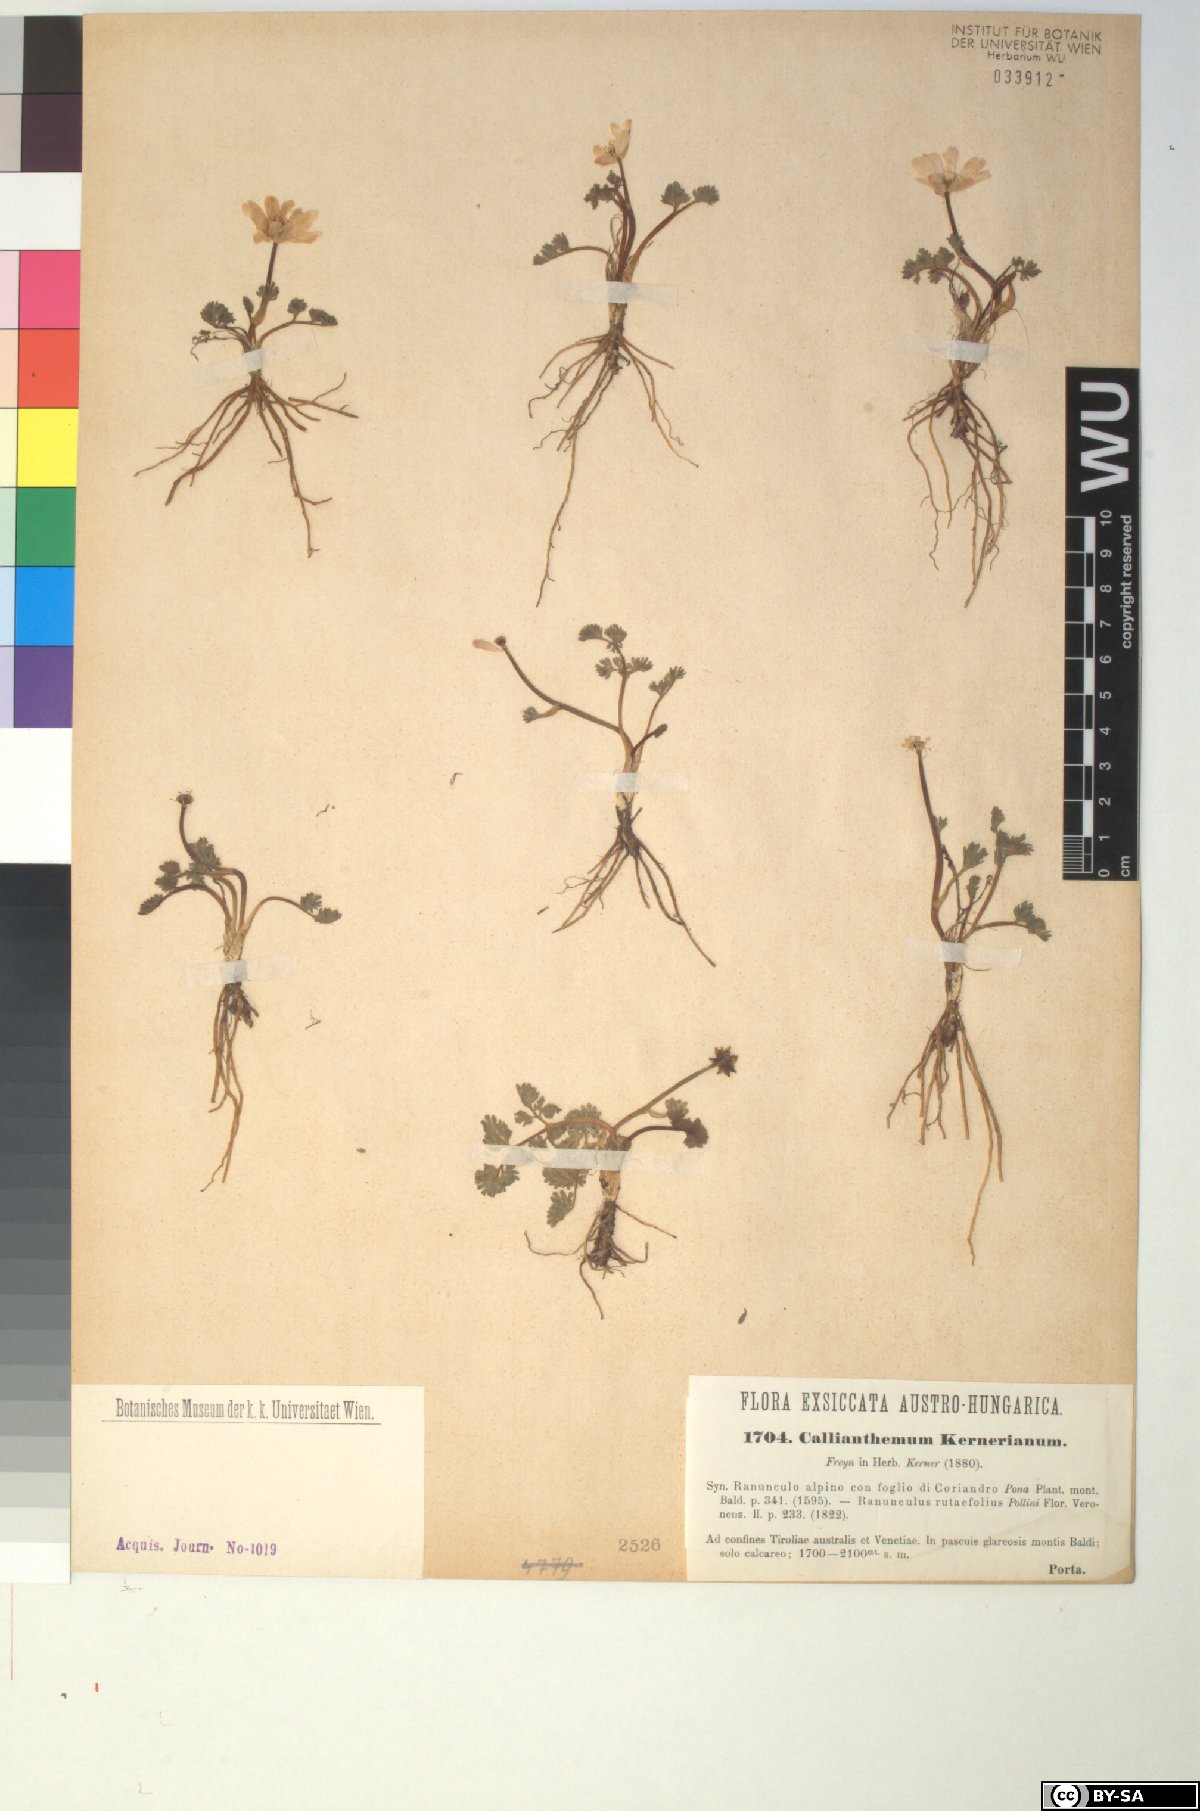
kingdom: Plantae
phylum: Tracheophyta
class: Magnoliopsida
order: Ranunculales
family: Ranunculaceae
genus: Callianthemum
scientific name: Callianthemum kernerianum
